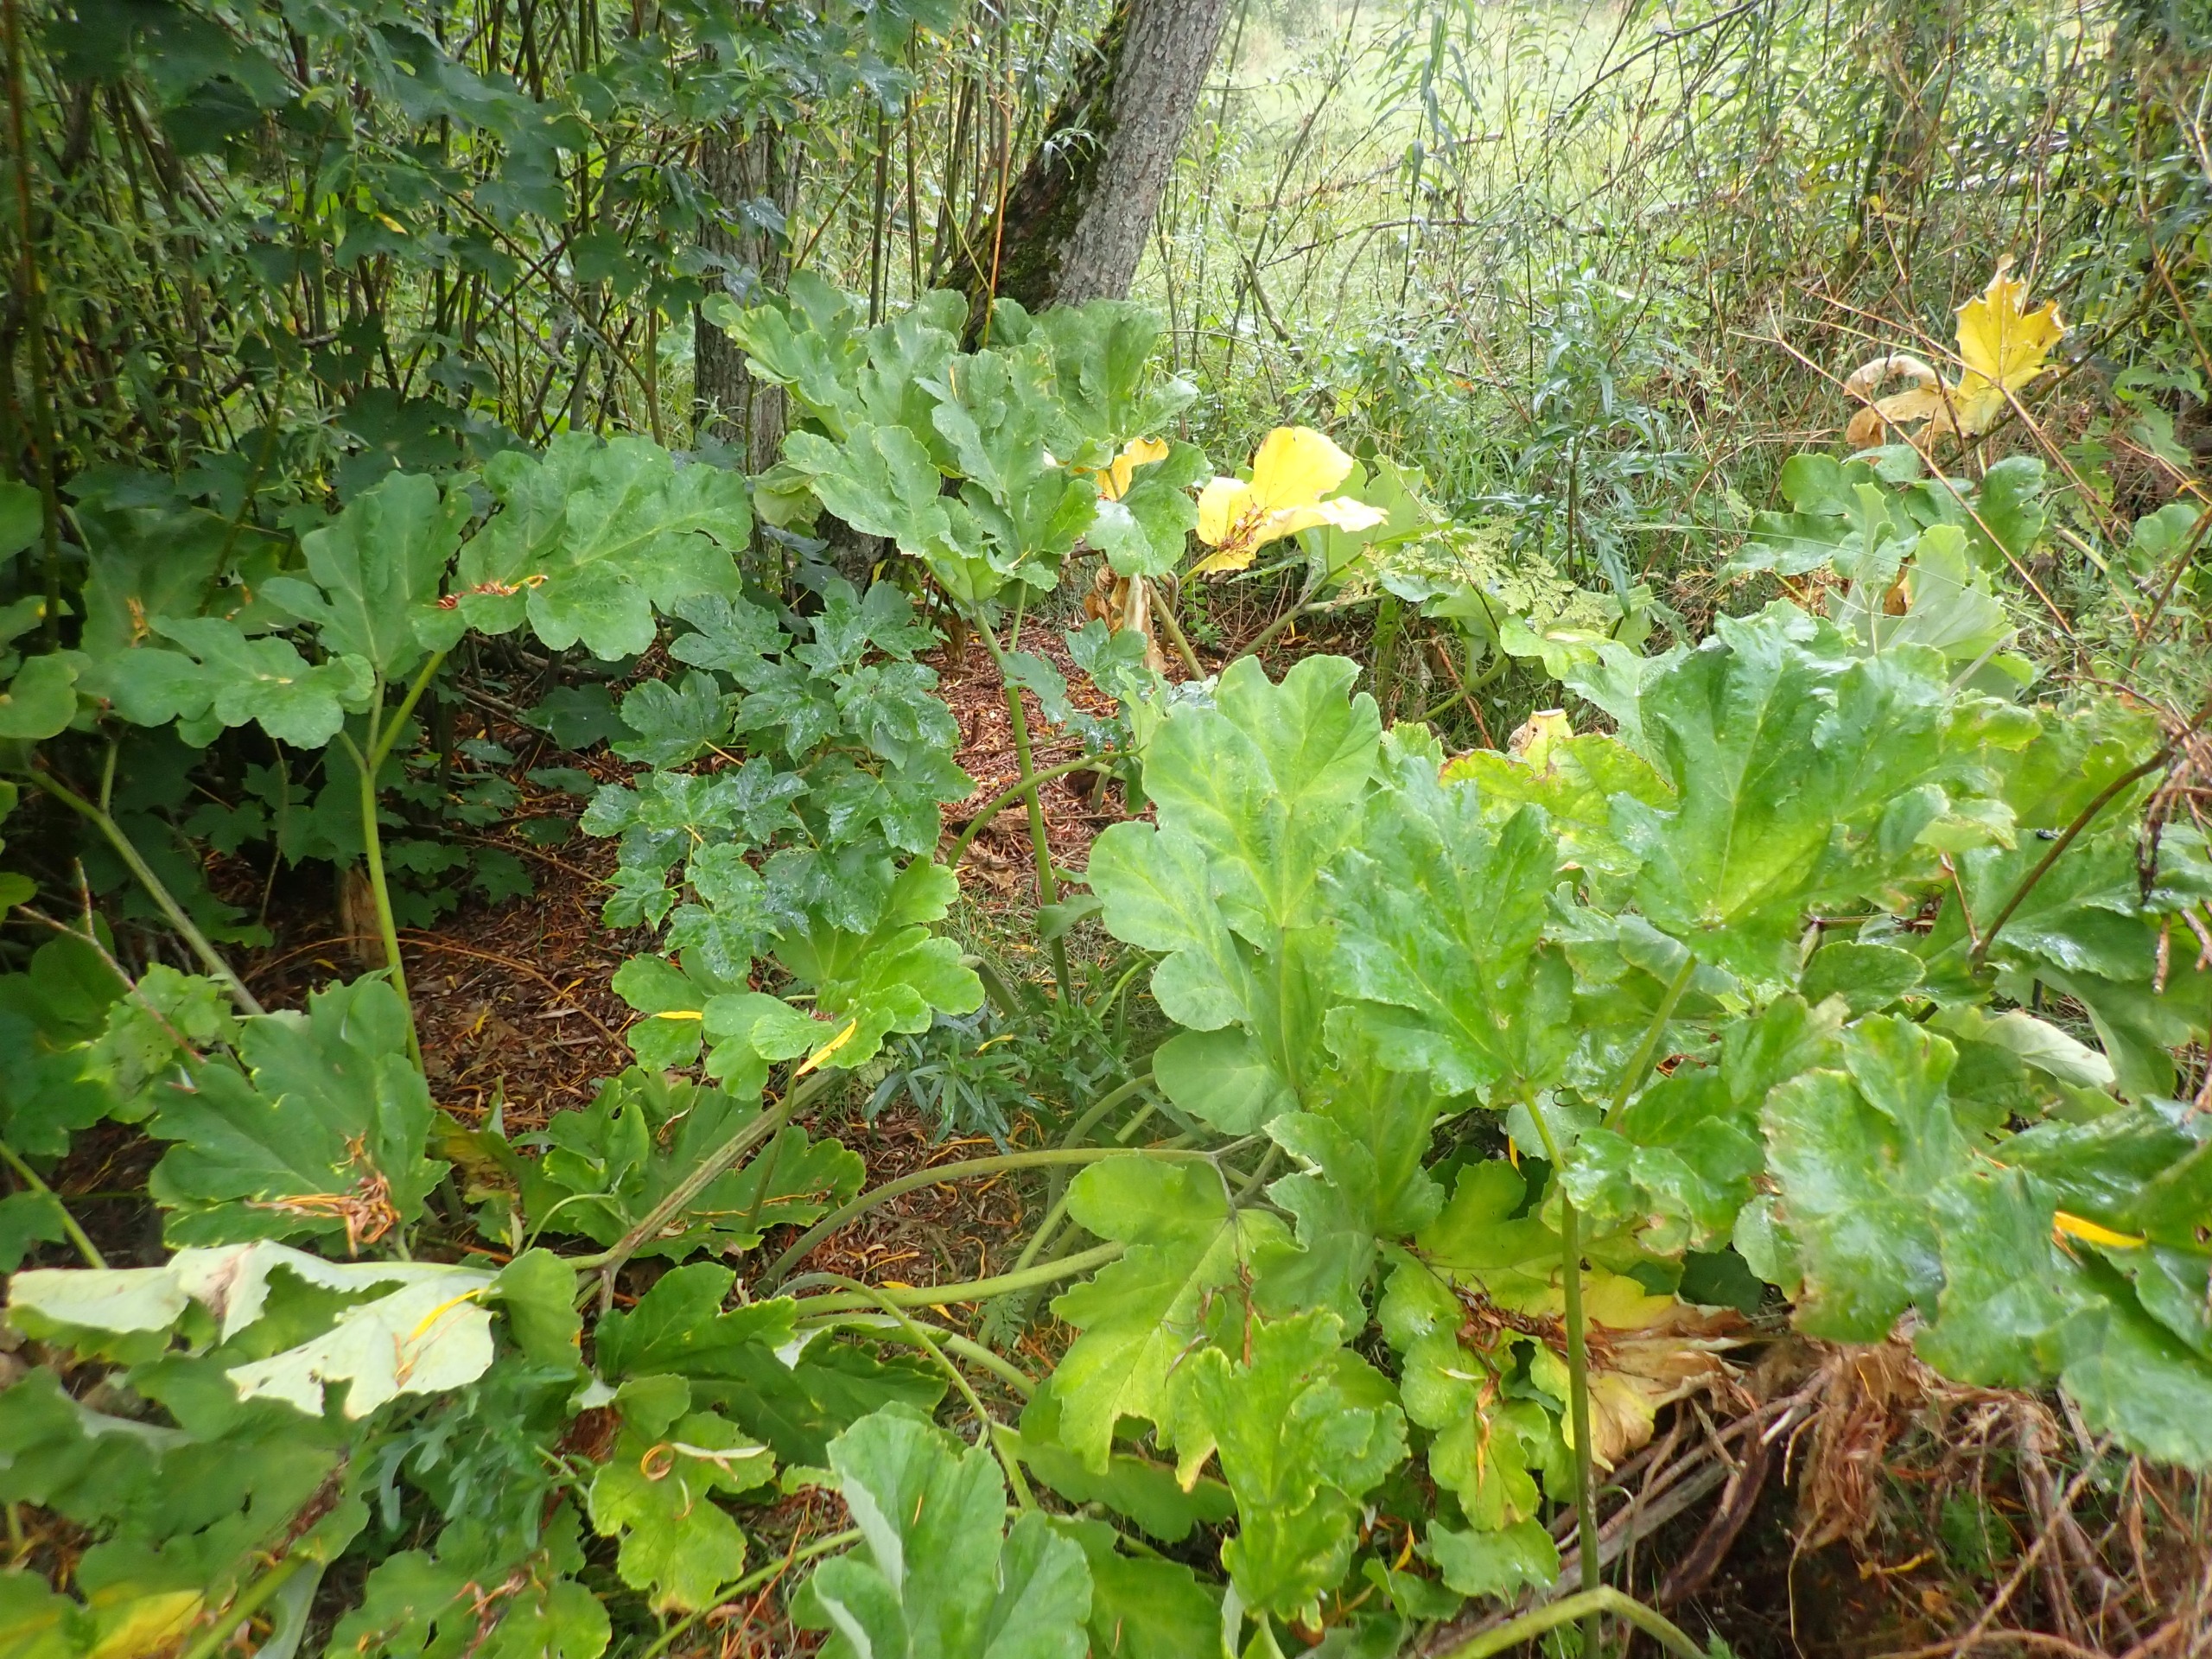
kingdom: Plantae
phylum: Tracheophyta
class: Magnoliopsida
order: Apiales
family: Apiaceae
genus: Heracleum
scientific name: Heracleum platytaenium
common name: Filtet bjørneklo
